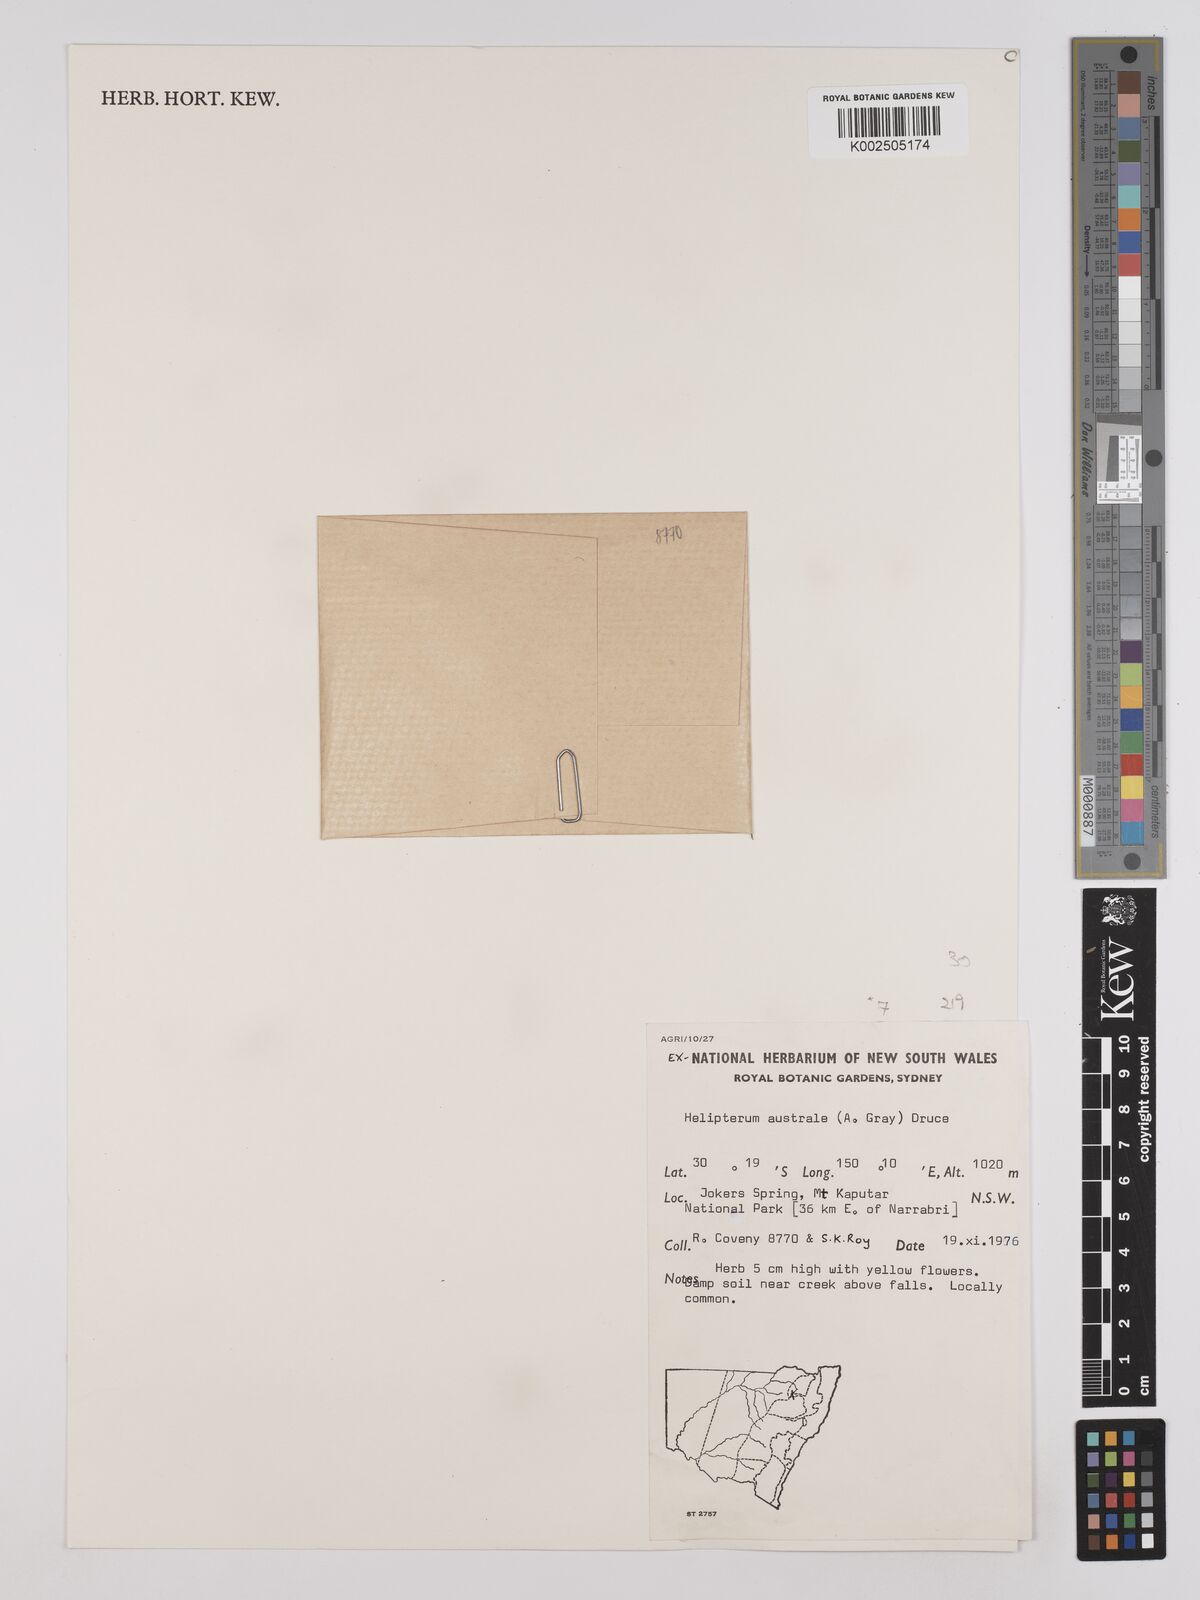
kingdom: Plantae
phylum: Tracheophyta
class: Magnoliopsida
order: Asterales
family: Asteraceae
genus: Triptilodiscus
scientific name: Triptilodiscus pygmaeus
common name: Common sunray
